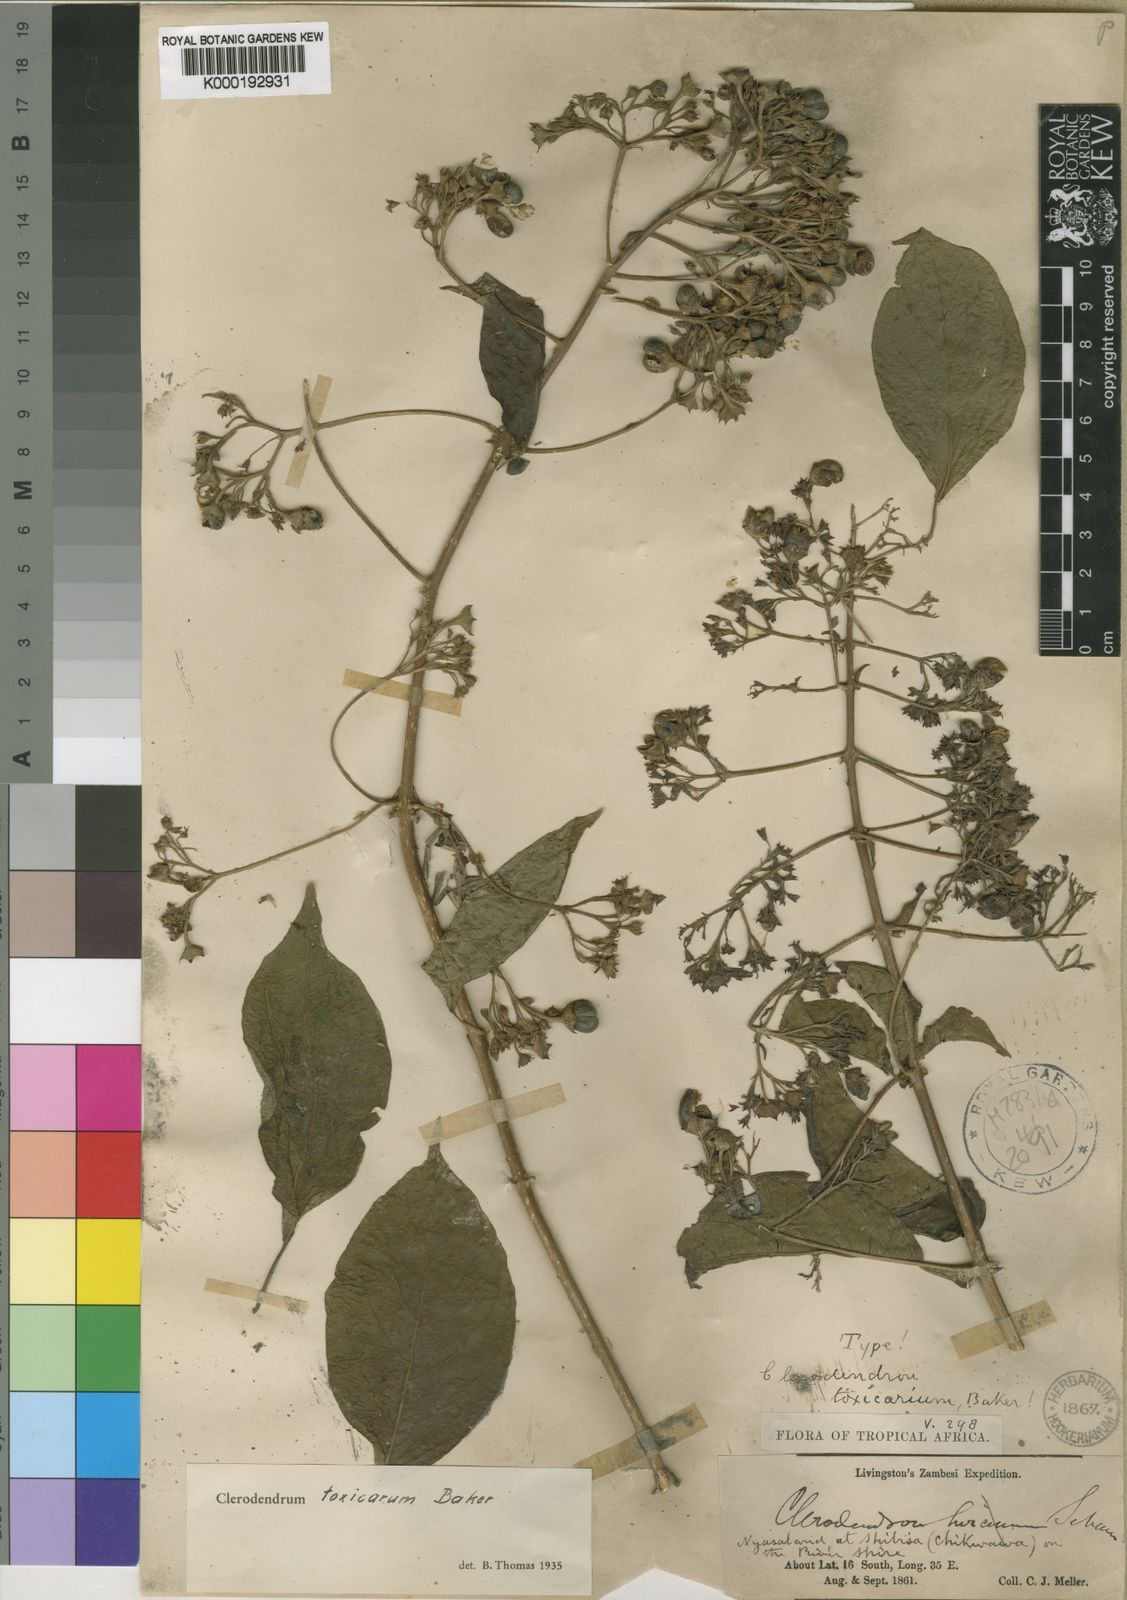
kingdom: Plantae
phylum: Tracheophyta
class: Magnoliopsida
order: Lamiales
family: Lamiaceae
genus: Clerodendrum
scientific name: Clerodendrum toxicarium
